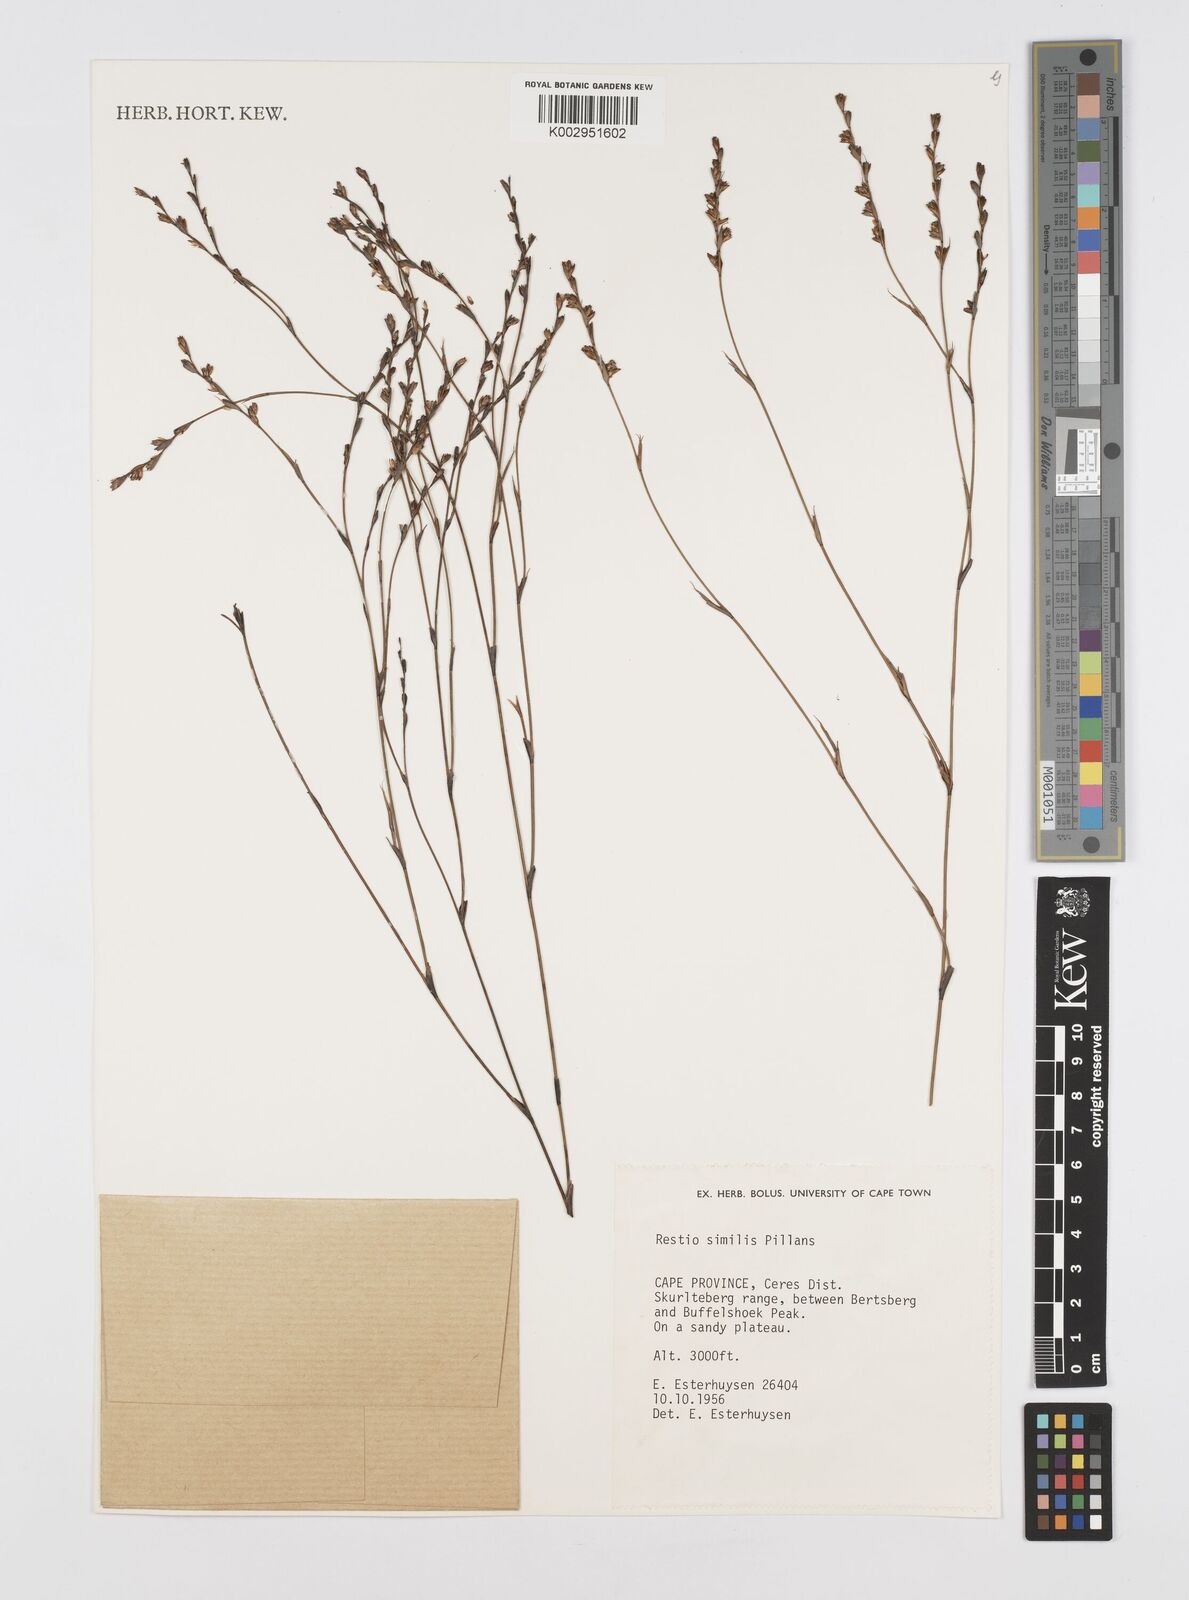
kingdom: Plantae
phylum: Tracheophyta
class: Liliopsida
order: Poales
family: Restionaceae
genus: Restio
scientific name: Restio similis
